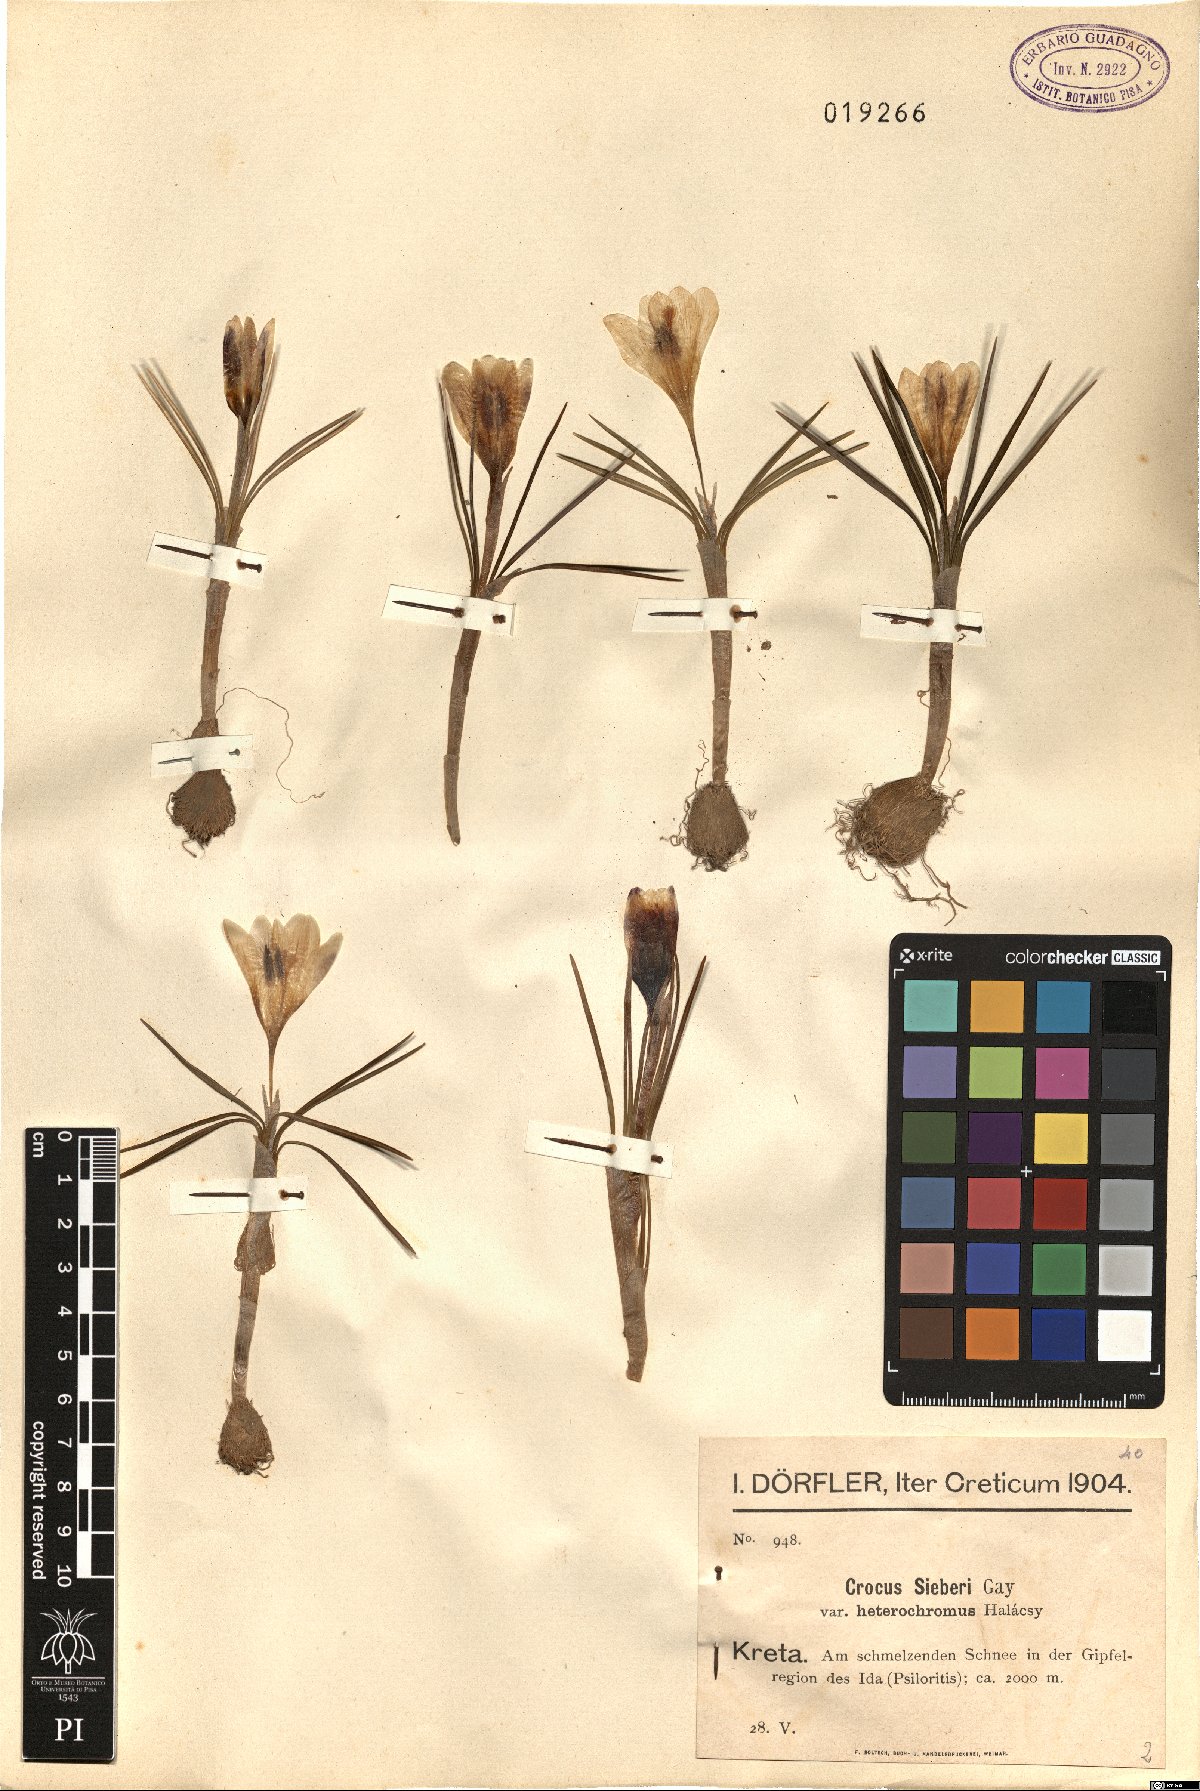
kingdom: Plantae
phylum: Tracheophyta
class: Liliopsida
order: Asparagales
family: Iridaceae
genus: Crocus
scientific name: Crocus sieberi
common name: Sieber's crocus
